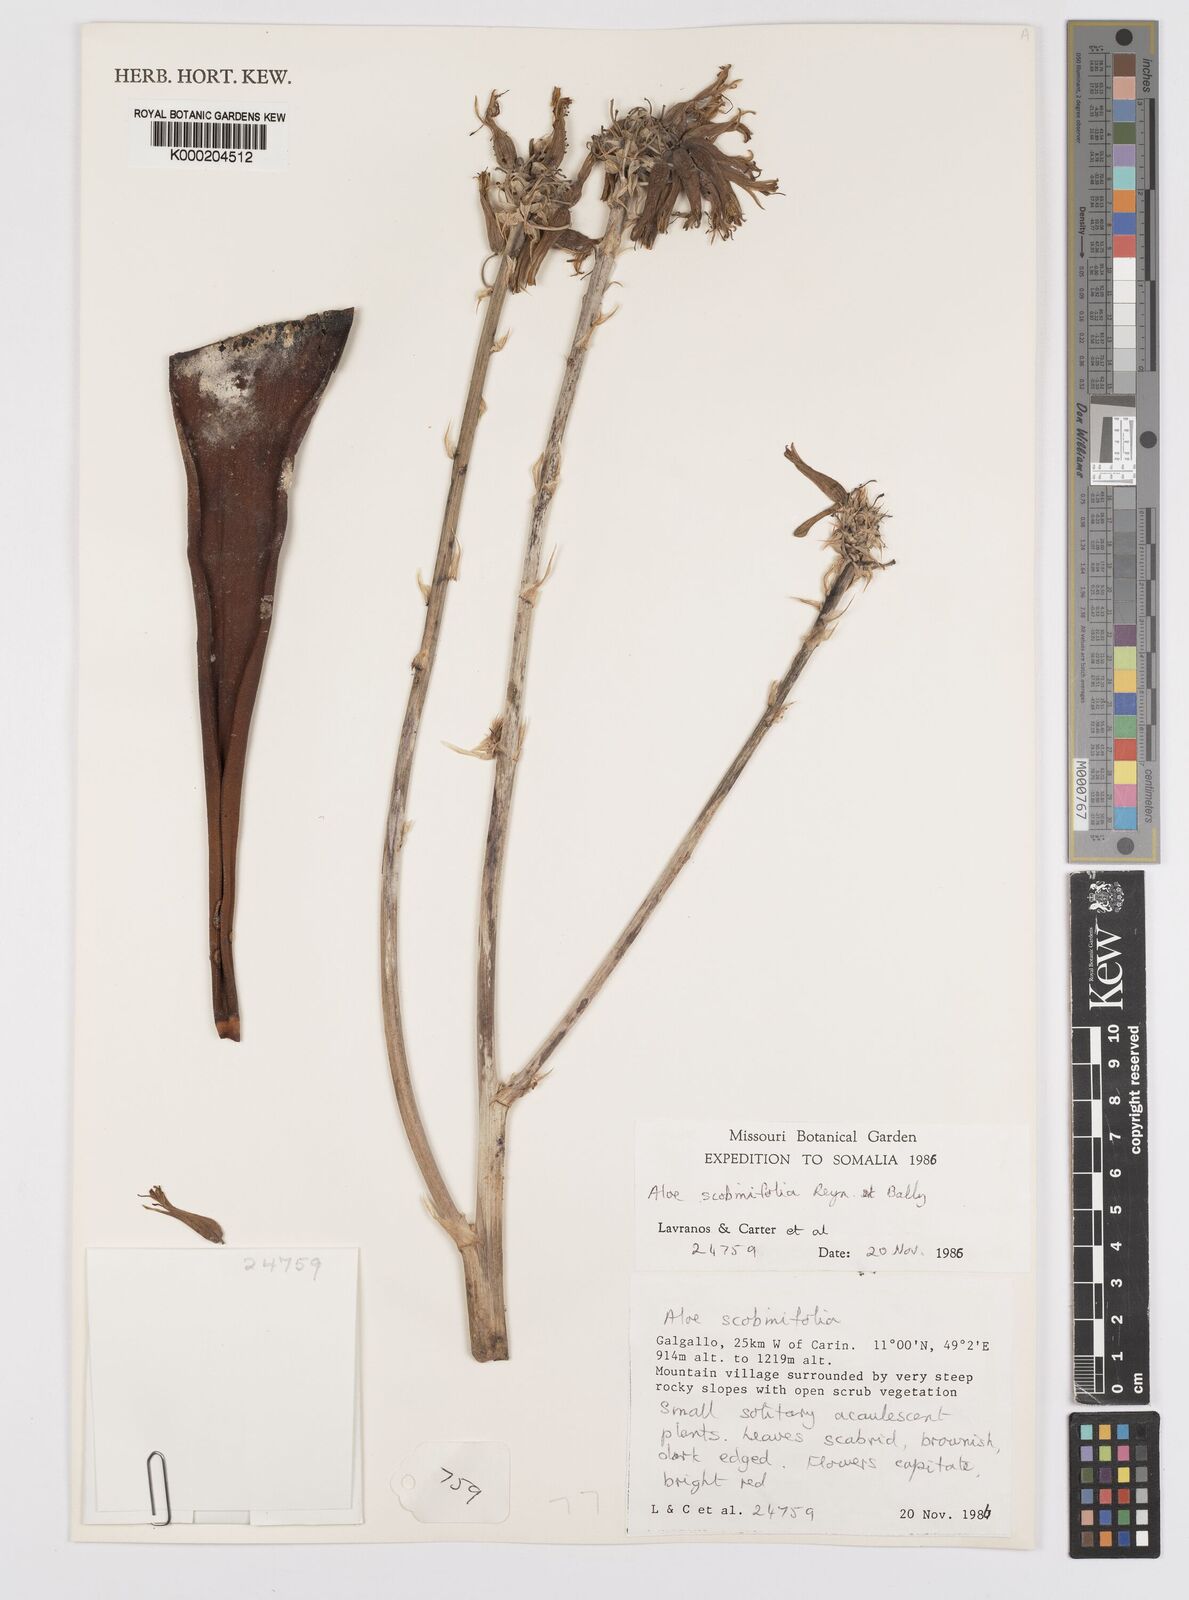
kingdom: Plantae
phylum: Tracheophyta
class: Liliopsida
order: Asparagales
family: Asphodelaceae
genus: Aloe
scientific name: Aloe scobinifolia
